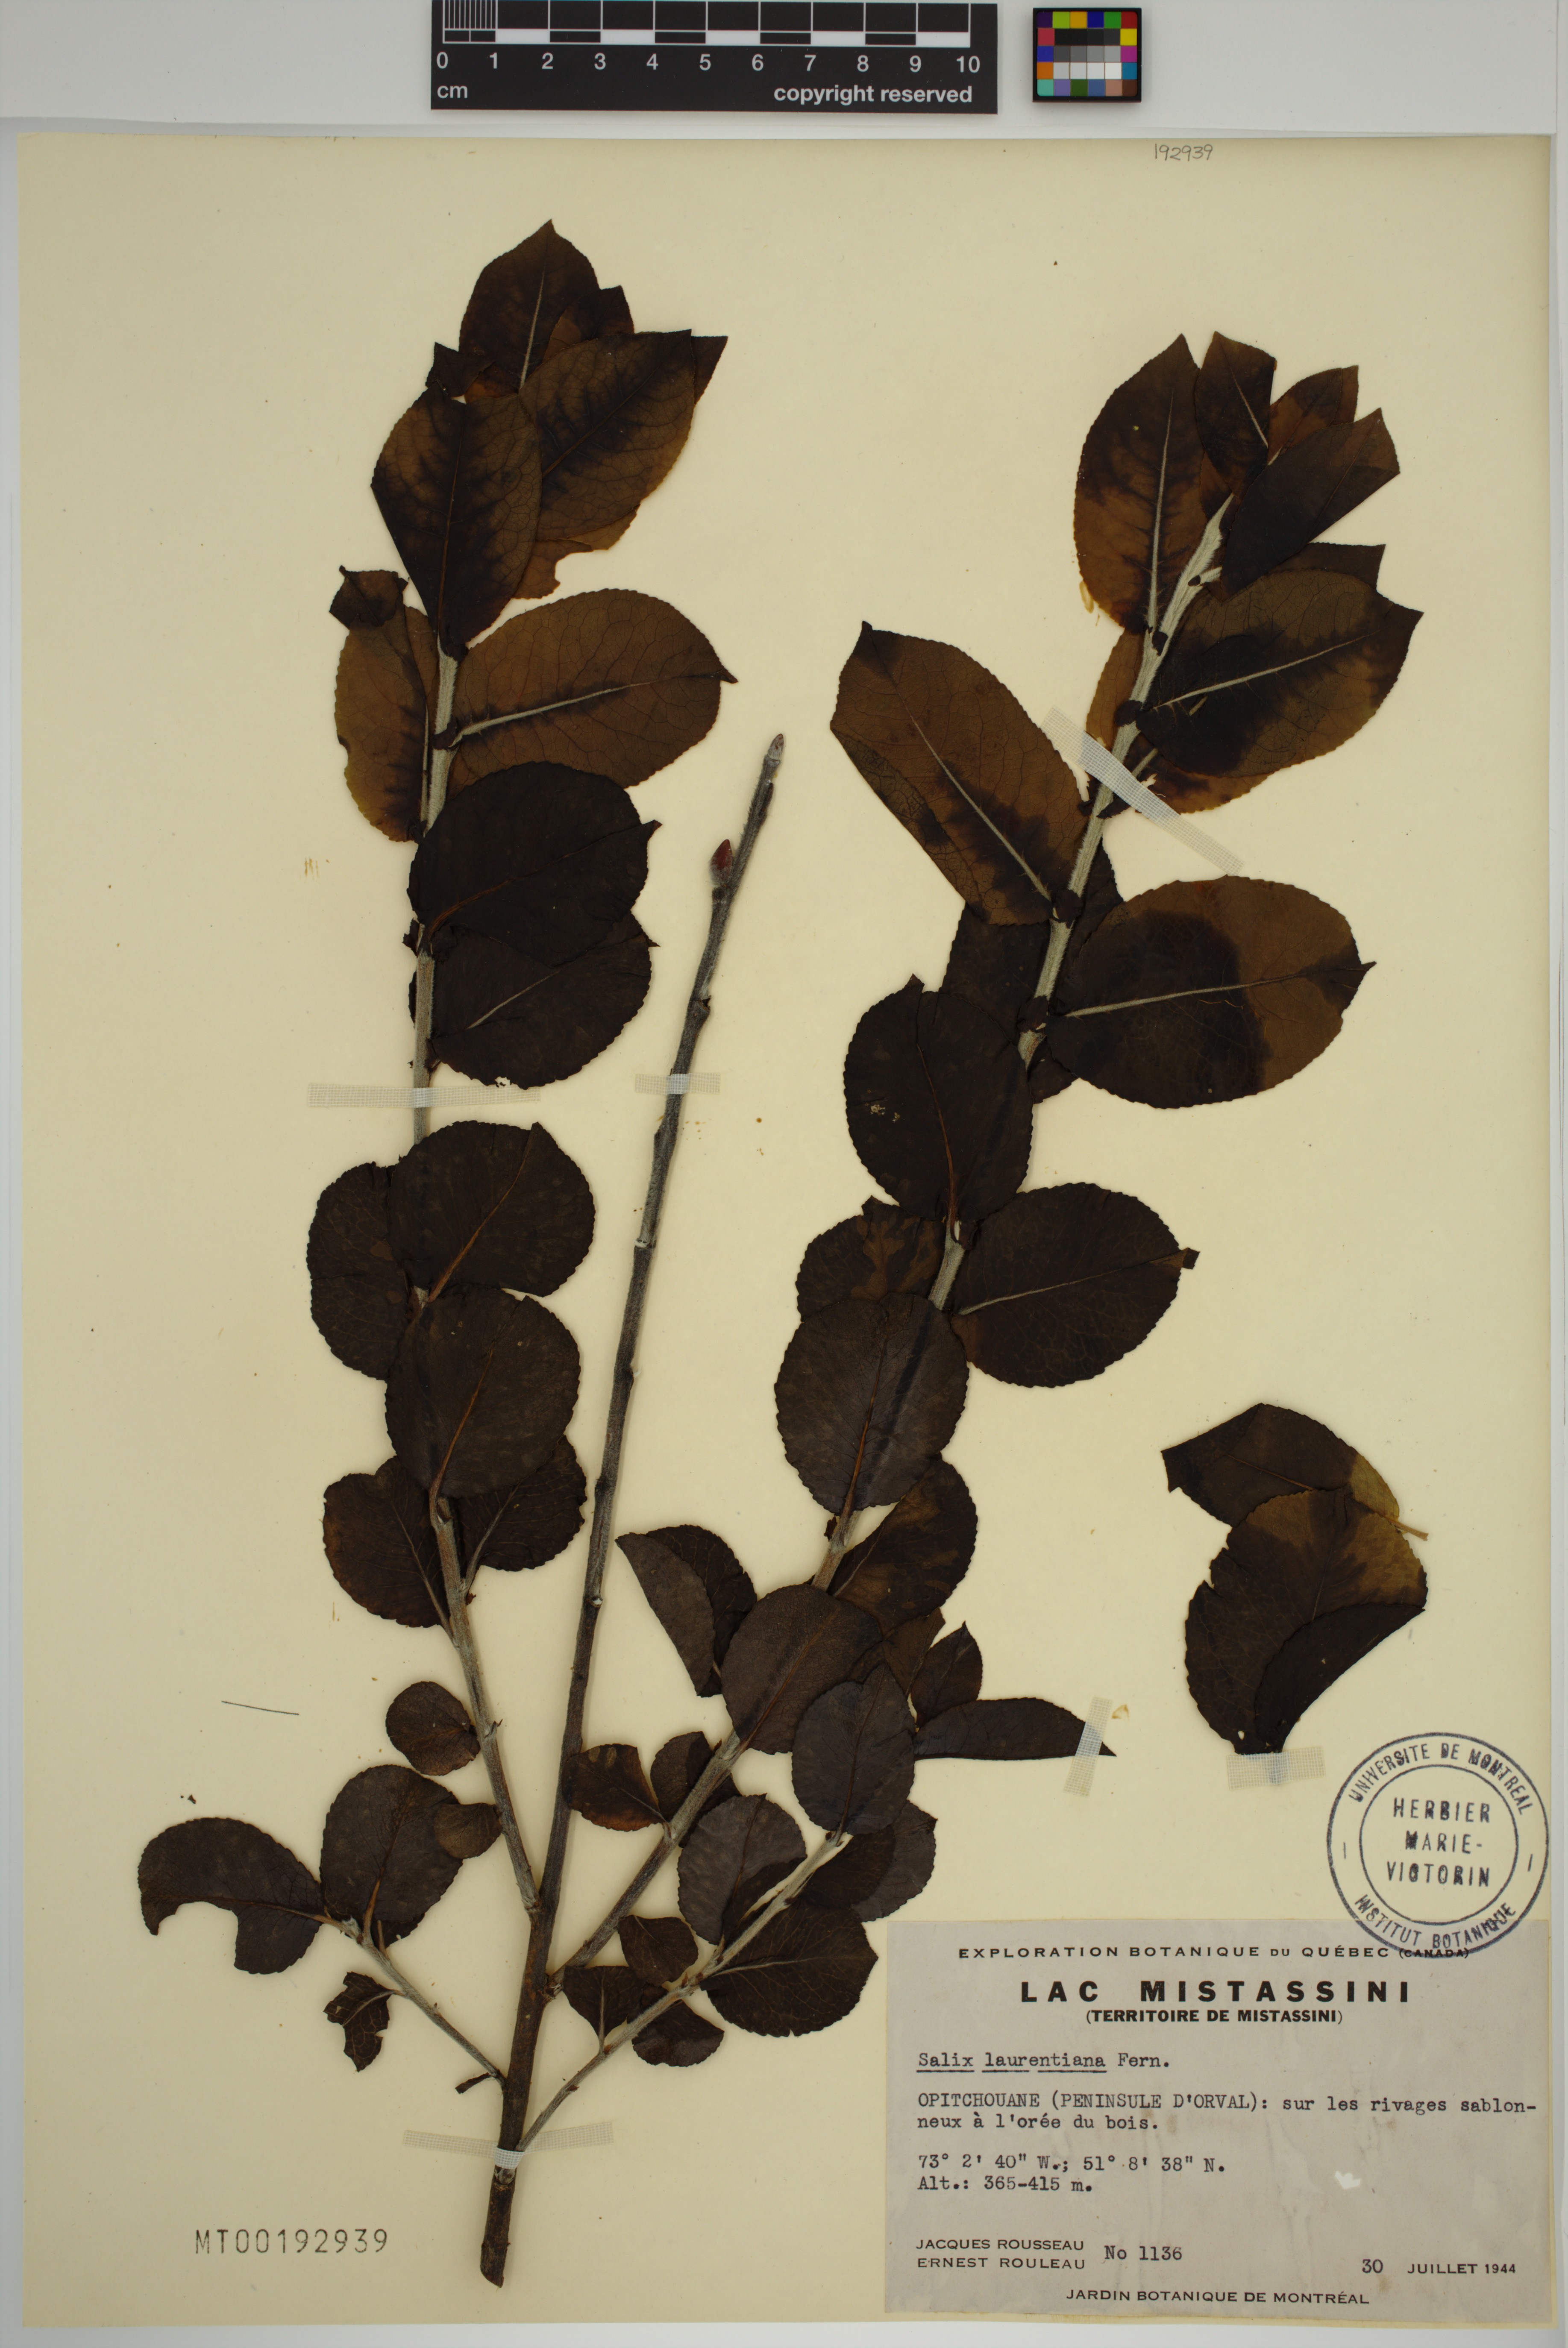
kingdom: Plantae
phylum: Tracheophyta
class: Magnoliopsida
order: Malpighiales
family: Salicaceae
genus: Salix
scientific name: Salix laurentiana
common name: Gulf of st. lawrence willow
